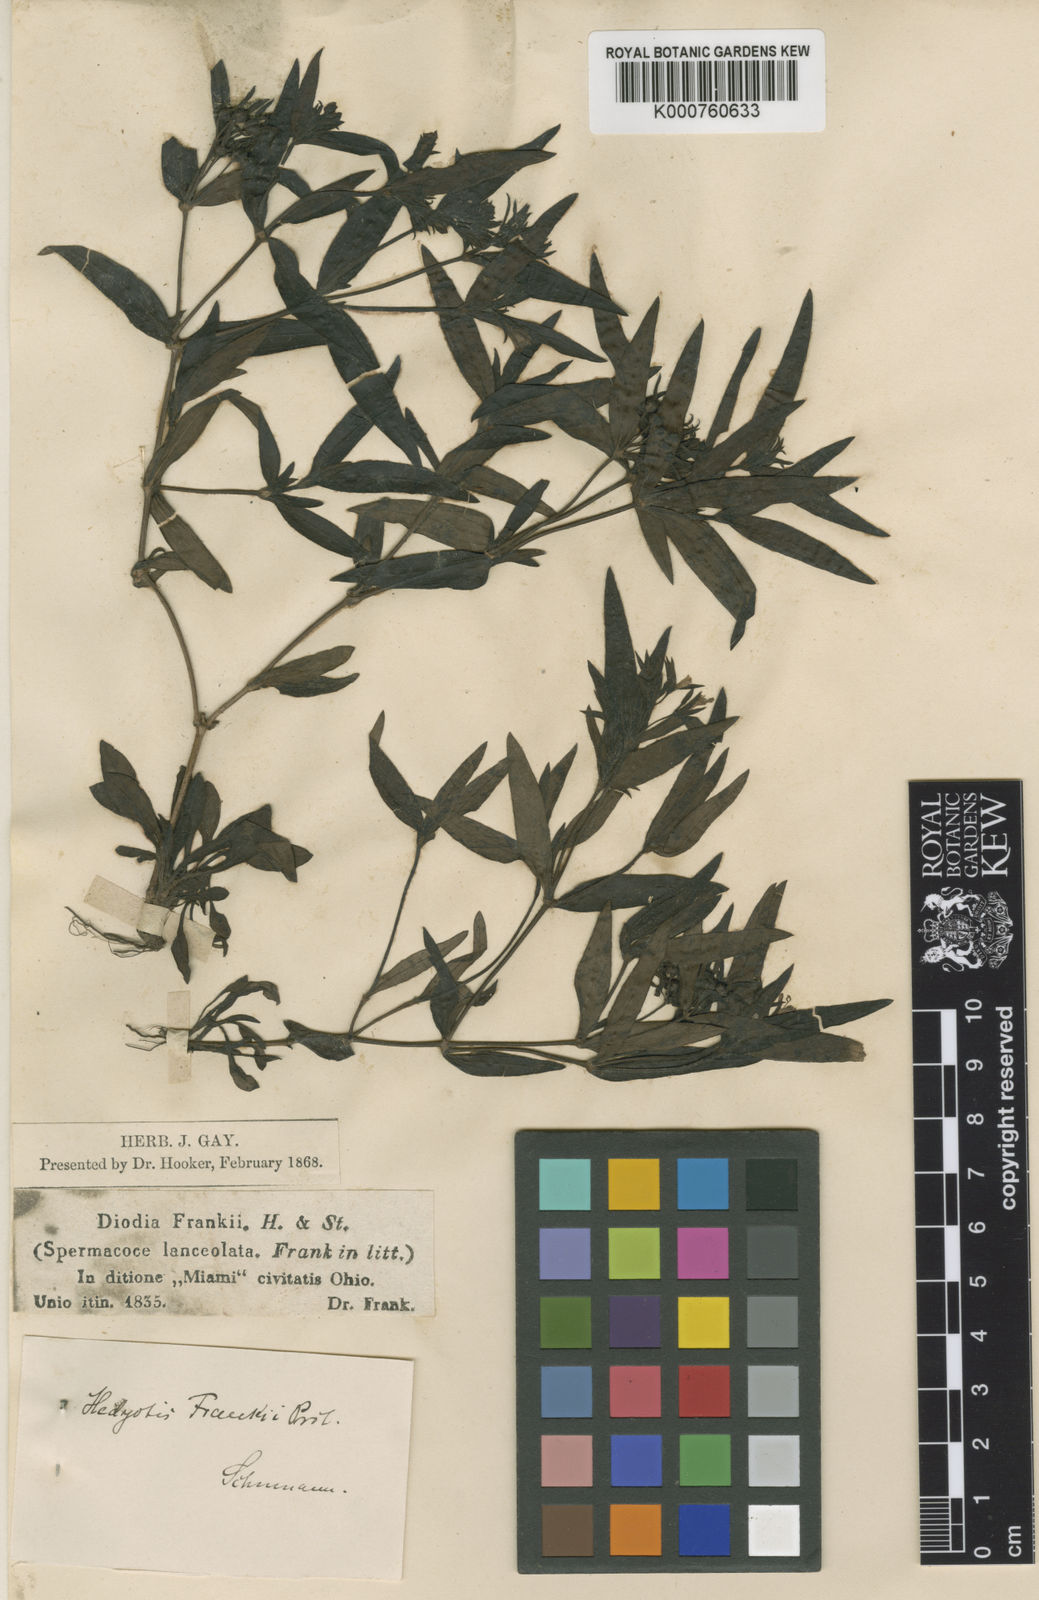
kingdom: Plantae
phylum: Tracheophyta
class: Magnoliopsida
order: Gentianales
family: Rubiaceae
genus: Houstonia
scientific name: Houstonia purpurea
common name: Summer bluet
